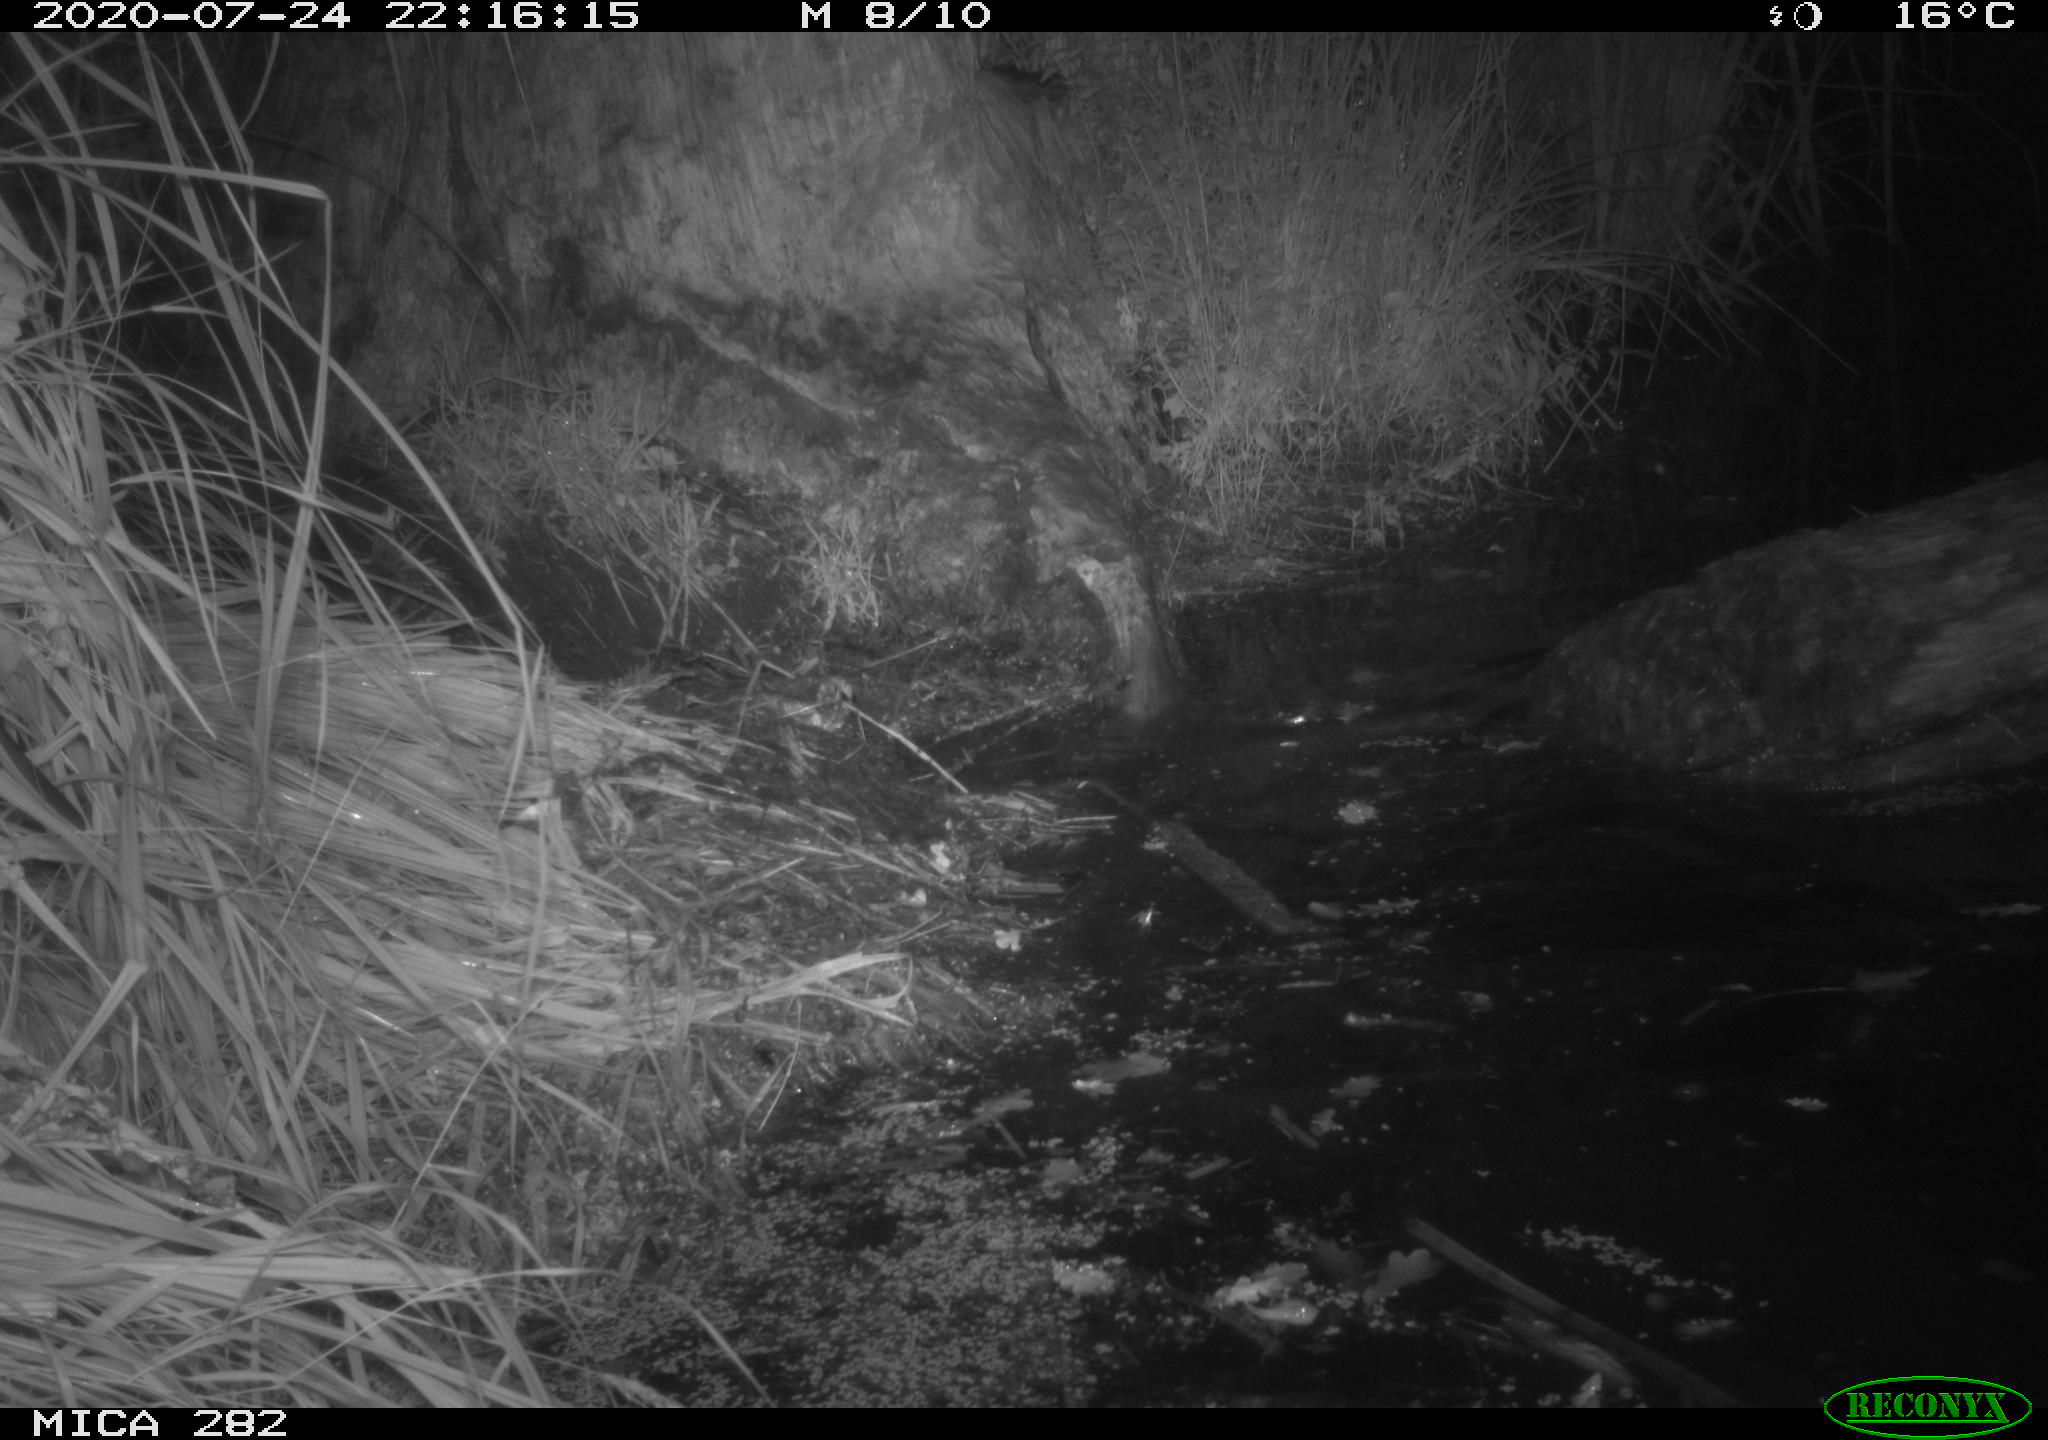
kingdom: Animalia
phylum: Chordata
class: Mammalia
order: Rodentia
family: Castoridae
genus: Castor
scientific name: Castor fiber
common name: Eurasian beaver
